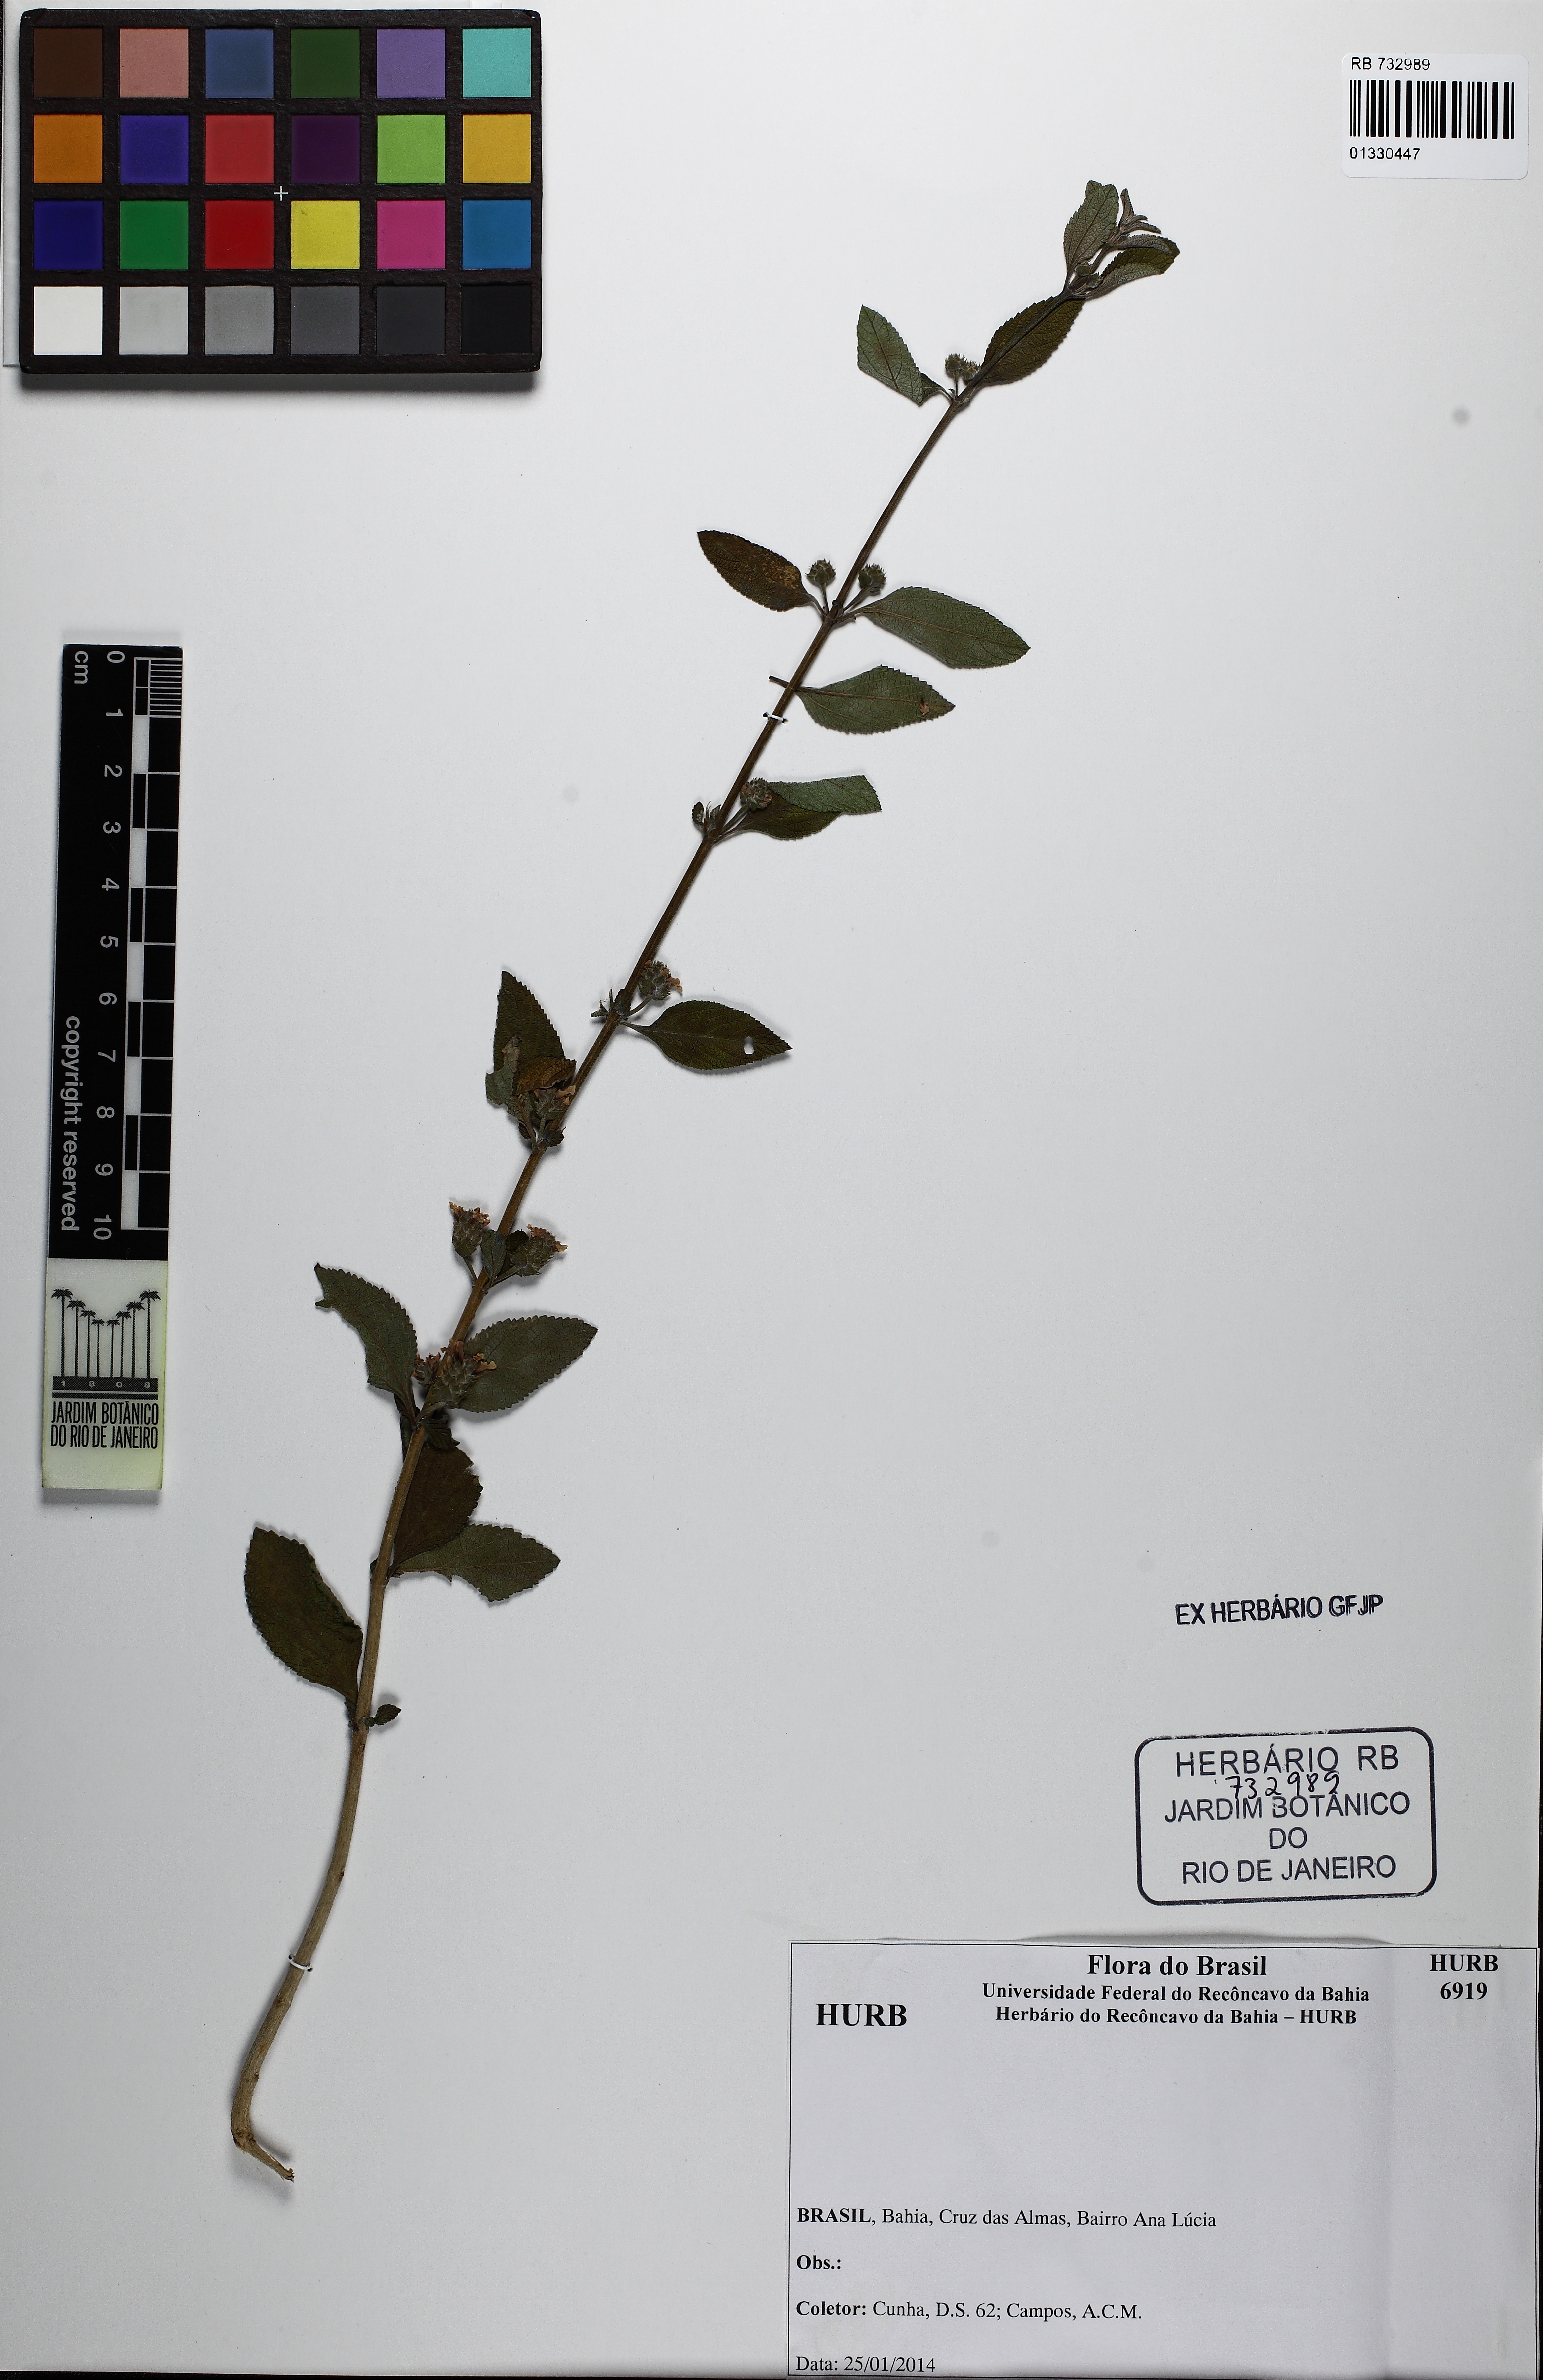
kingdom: Plantae
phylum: Tracheophyta
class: Magnoliopsida
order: Lamiales
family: Verbenaceae
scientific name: Verbenaceae
